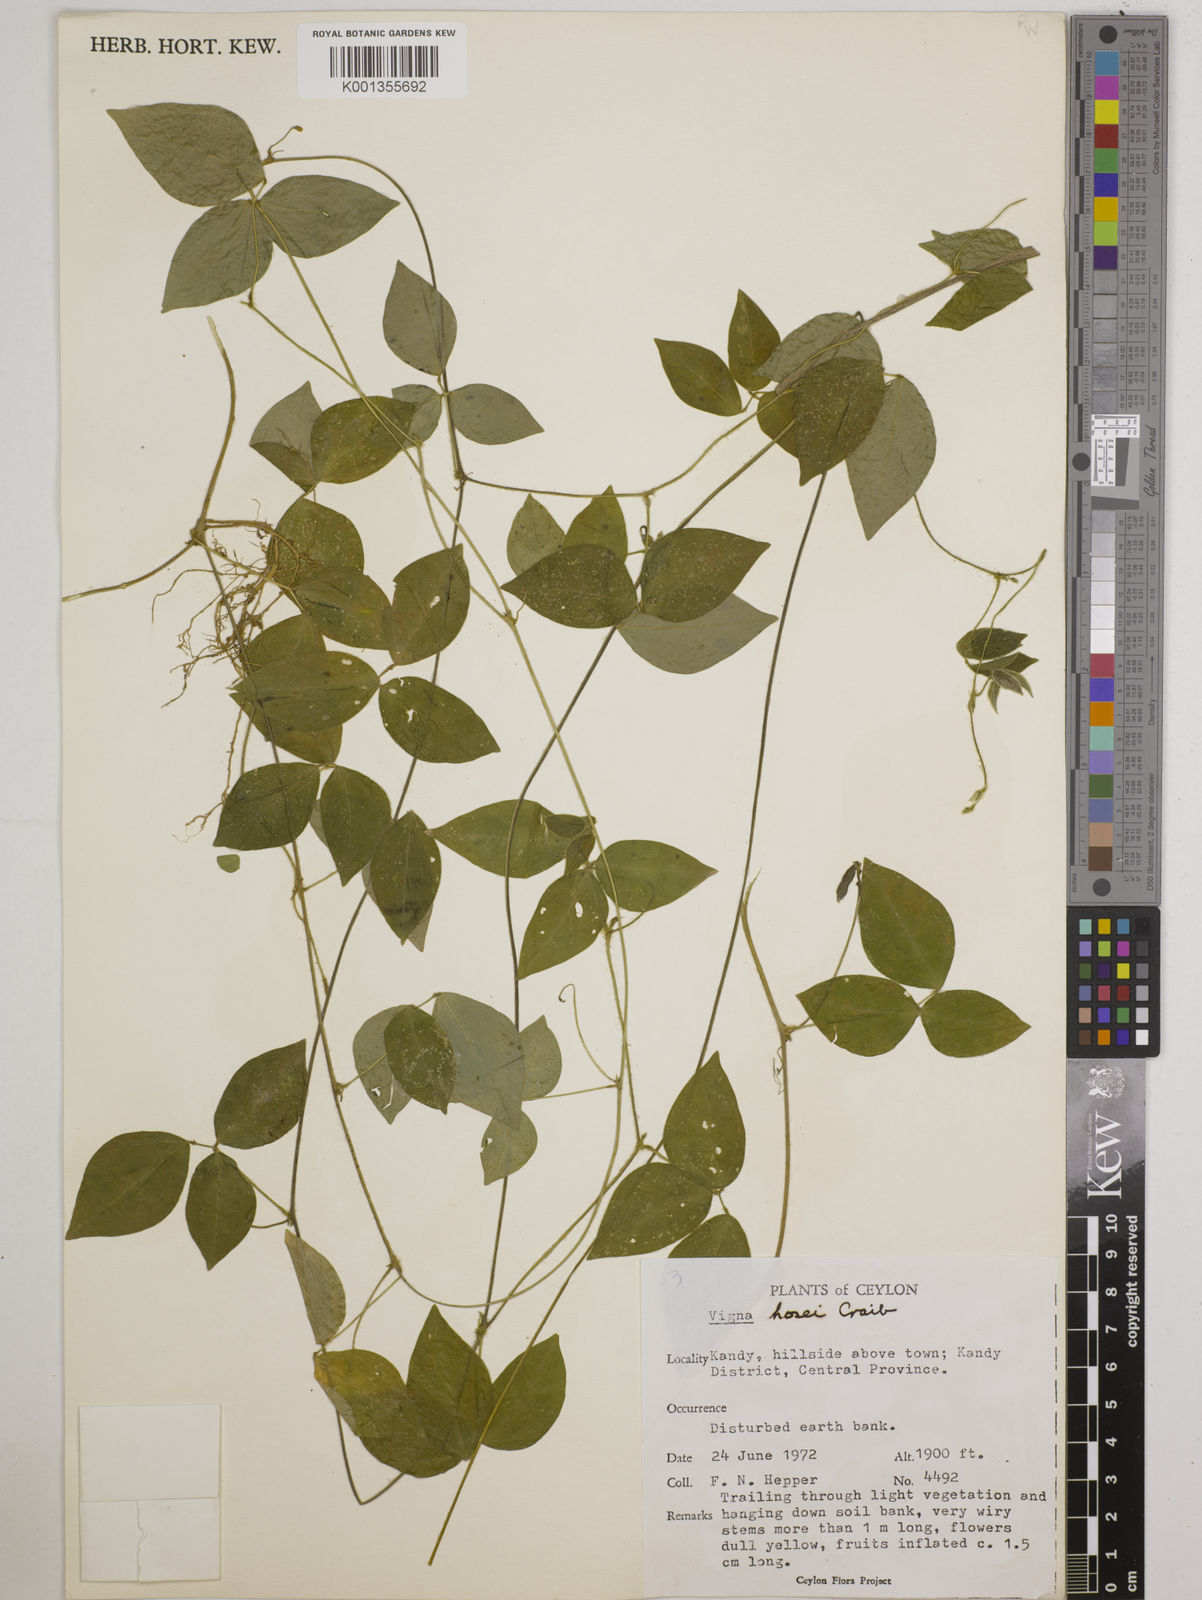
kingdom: Plantae
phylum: Tracheophyta
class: Magnoliopsida
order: Fabales
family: Fabaceae
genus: Vigna
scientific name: Vigna hosei
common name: Sarawak-bean
